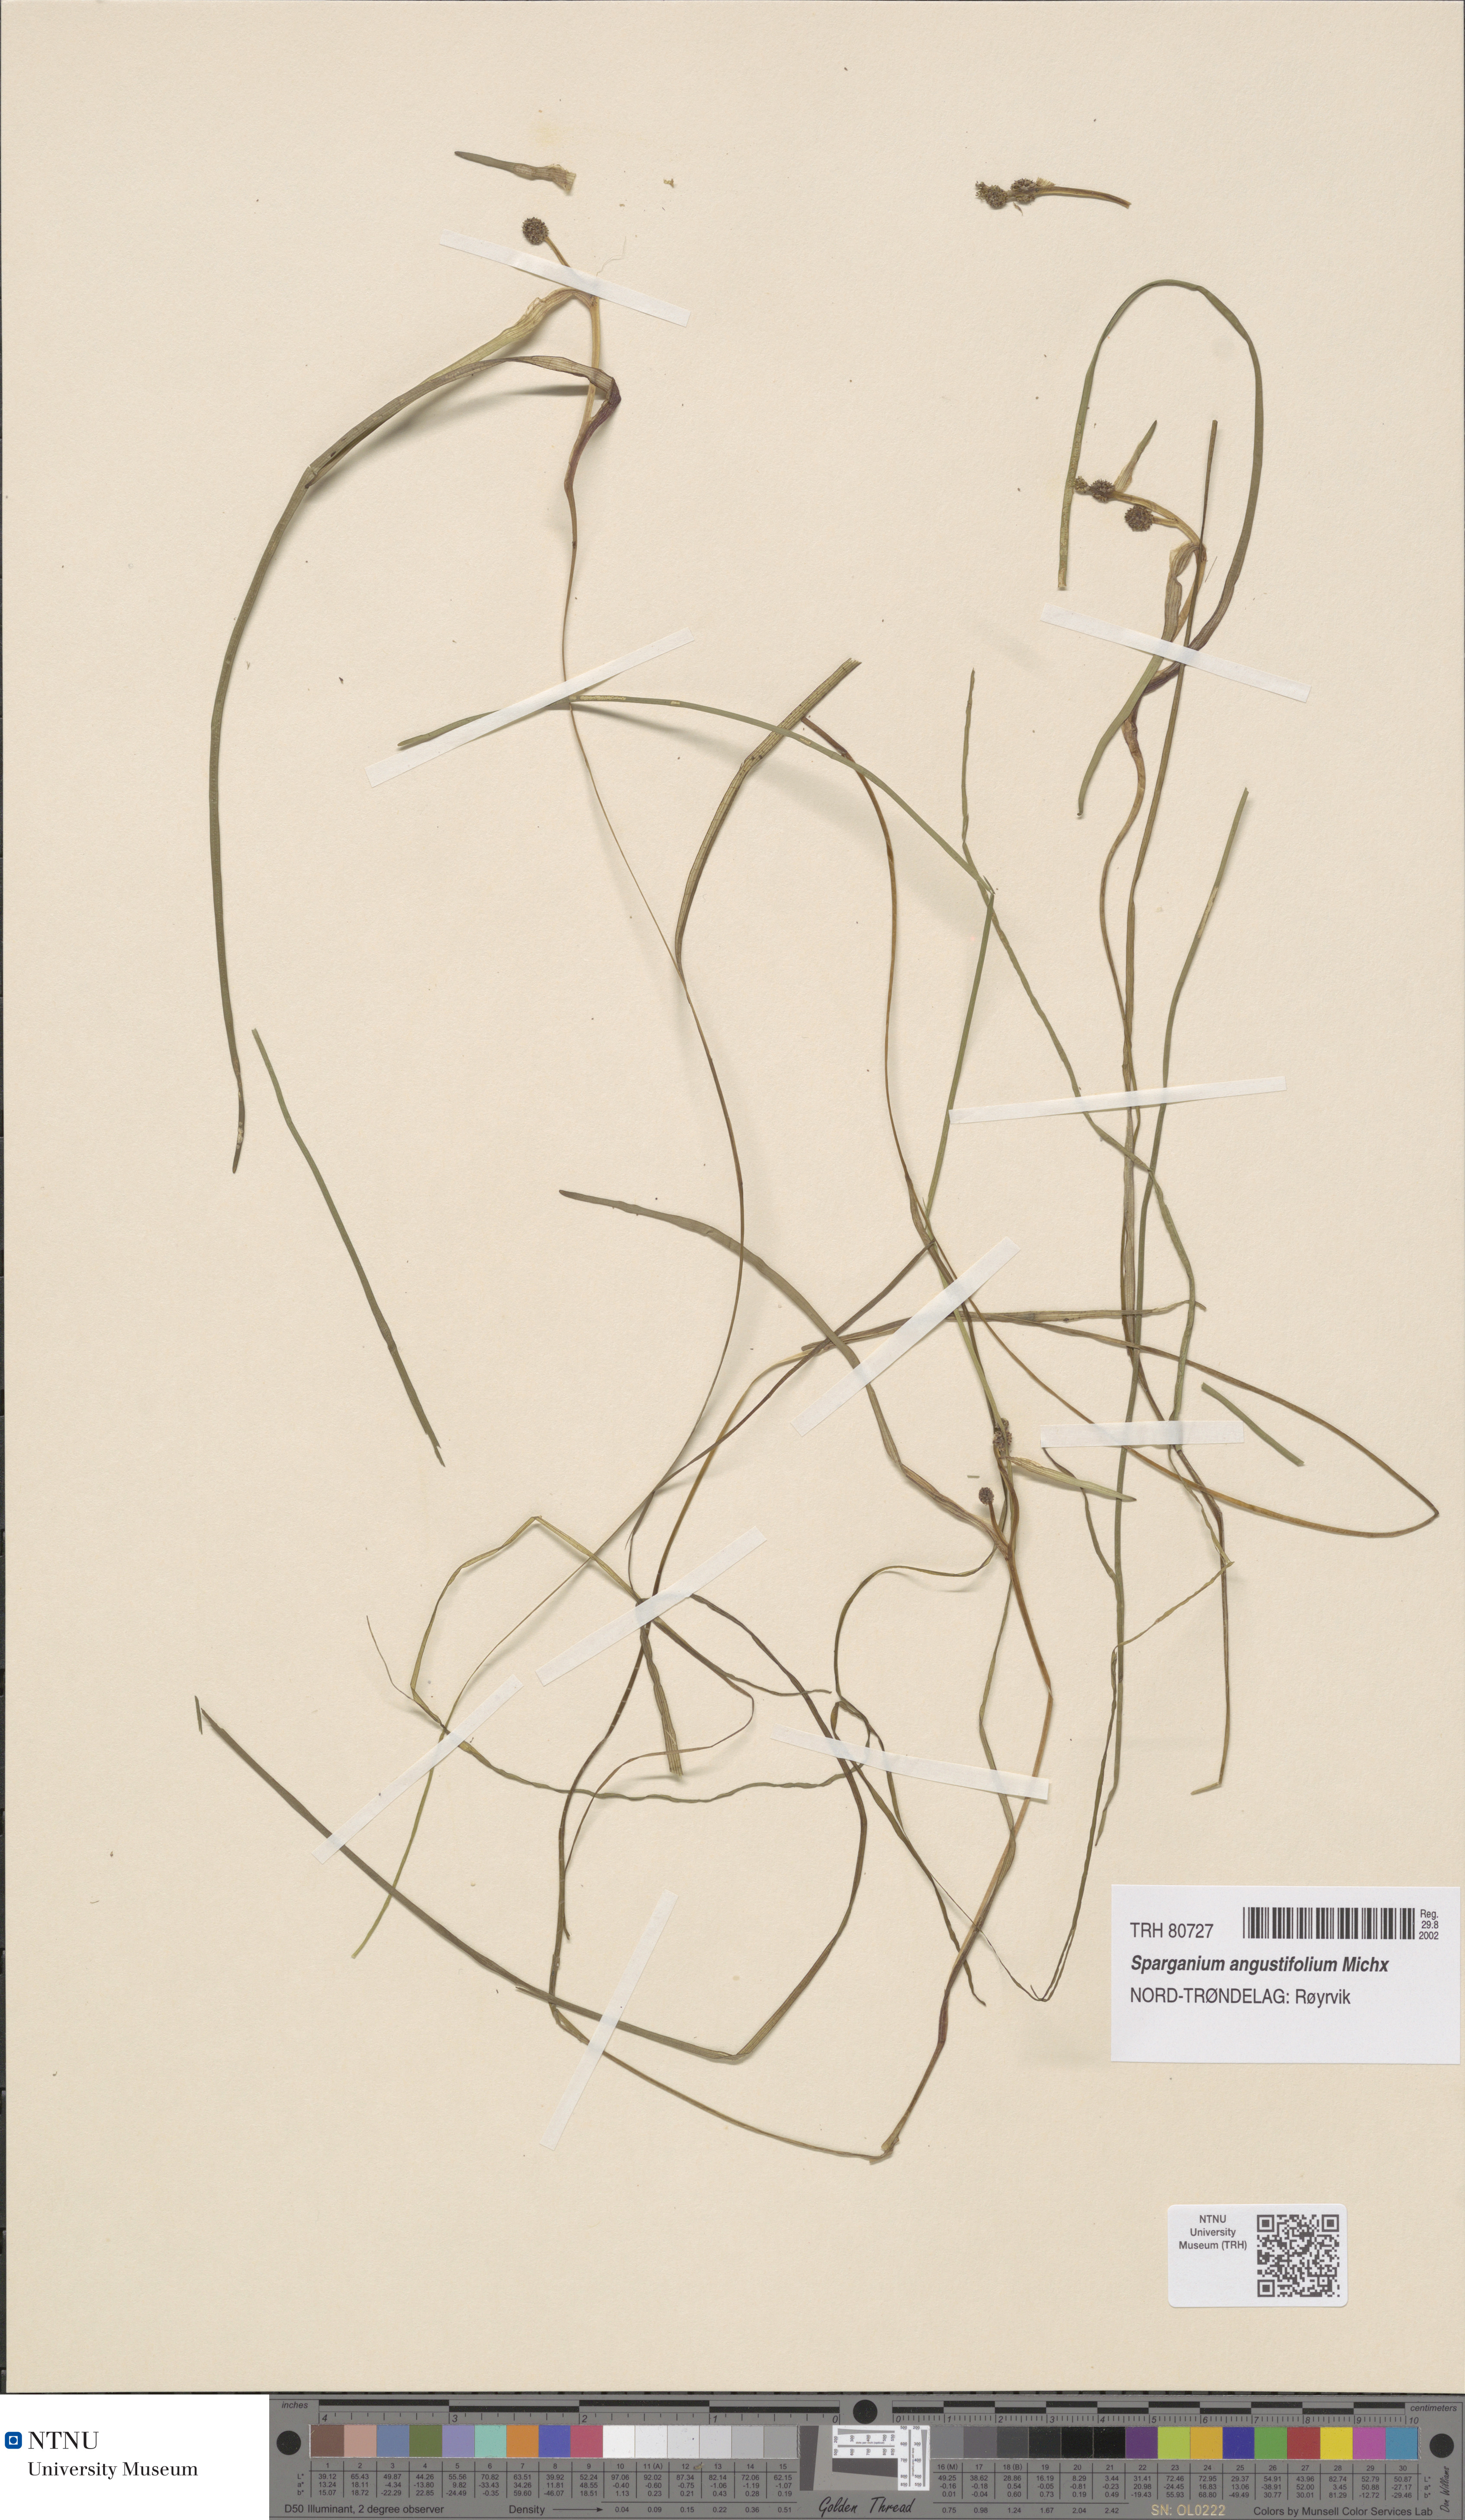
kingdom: Plantae
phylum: Tracheophyta
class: Liliopsida
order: Poales
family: Typhaceae
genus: Sparganium
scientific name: Sparganium angustifolium
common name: Floating bur-reed
